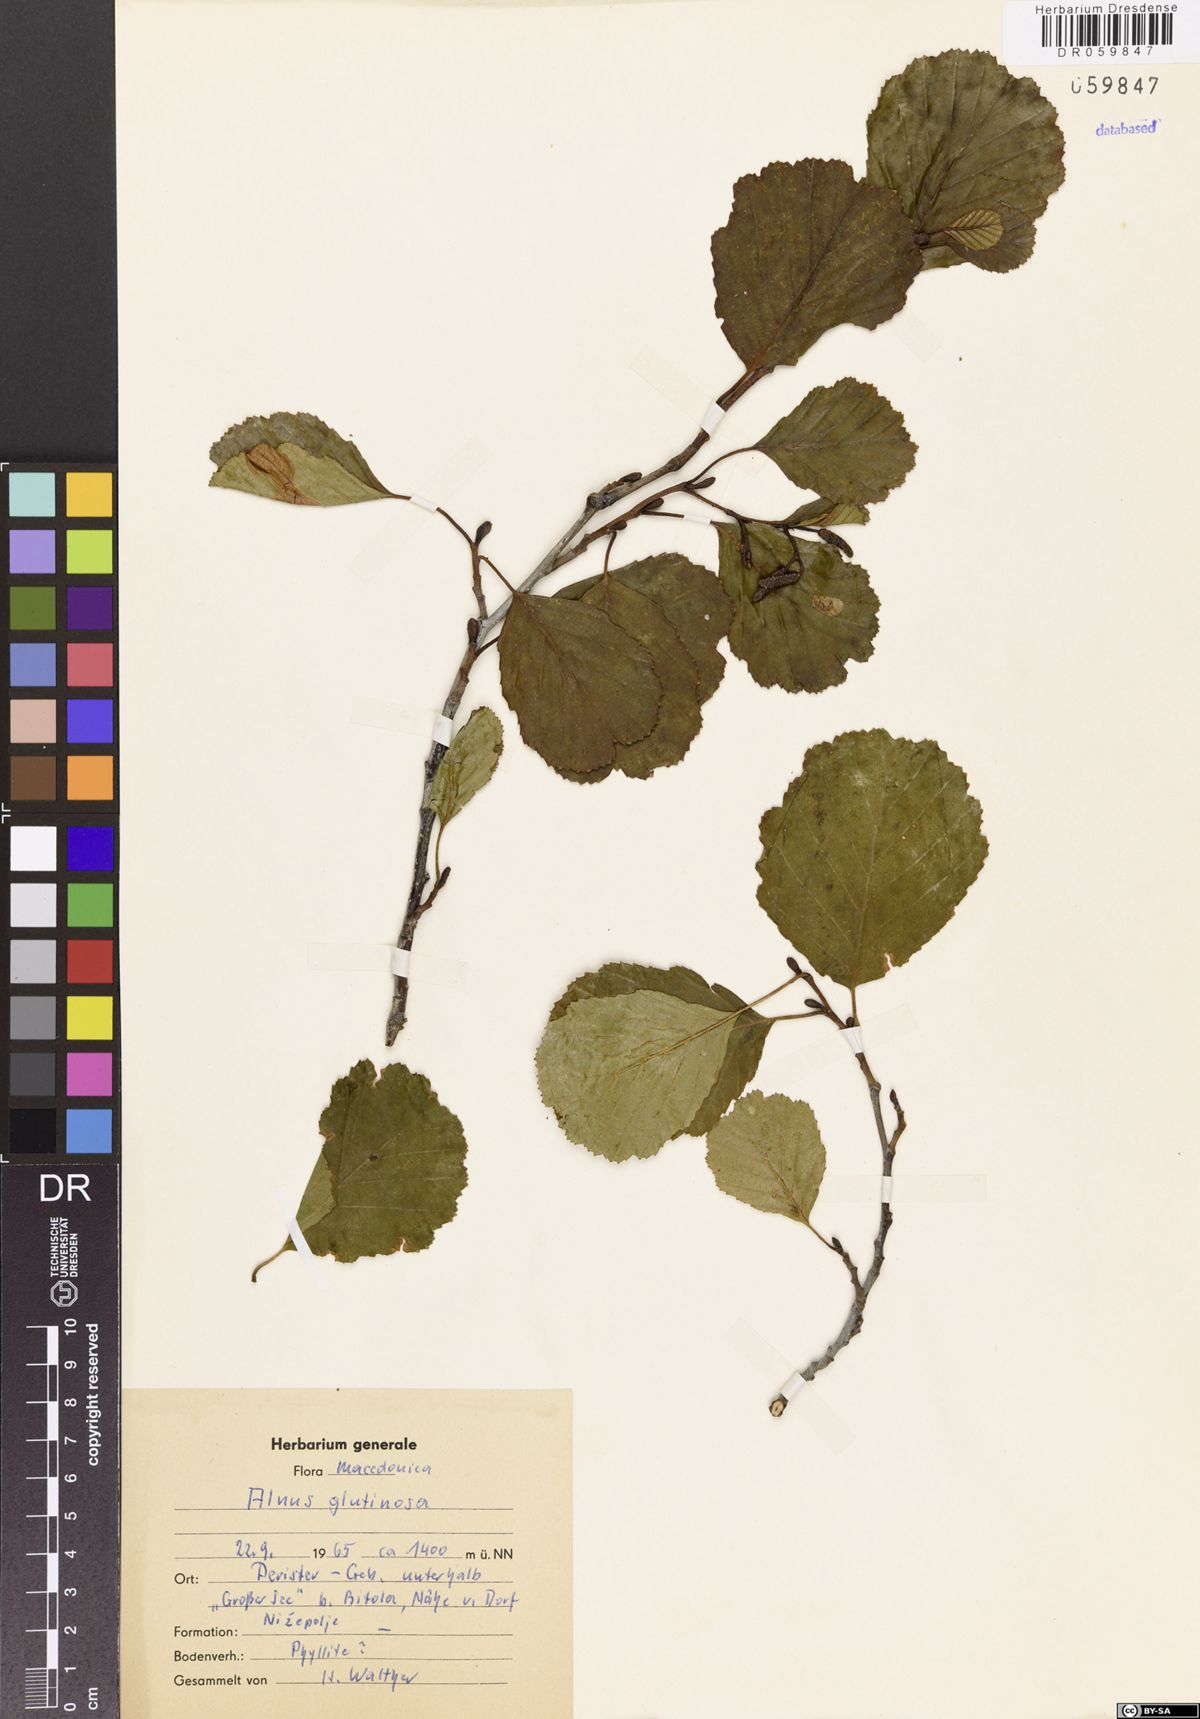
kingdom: Plantae
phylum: Tracheophyta
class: Magnoliopsida
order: Fagales
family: Betulaceae
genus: Alnus
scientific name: Alnus glutinosa
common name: Black alder
